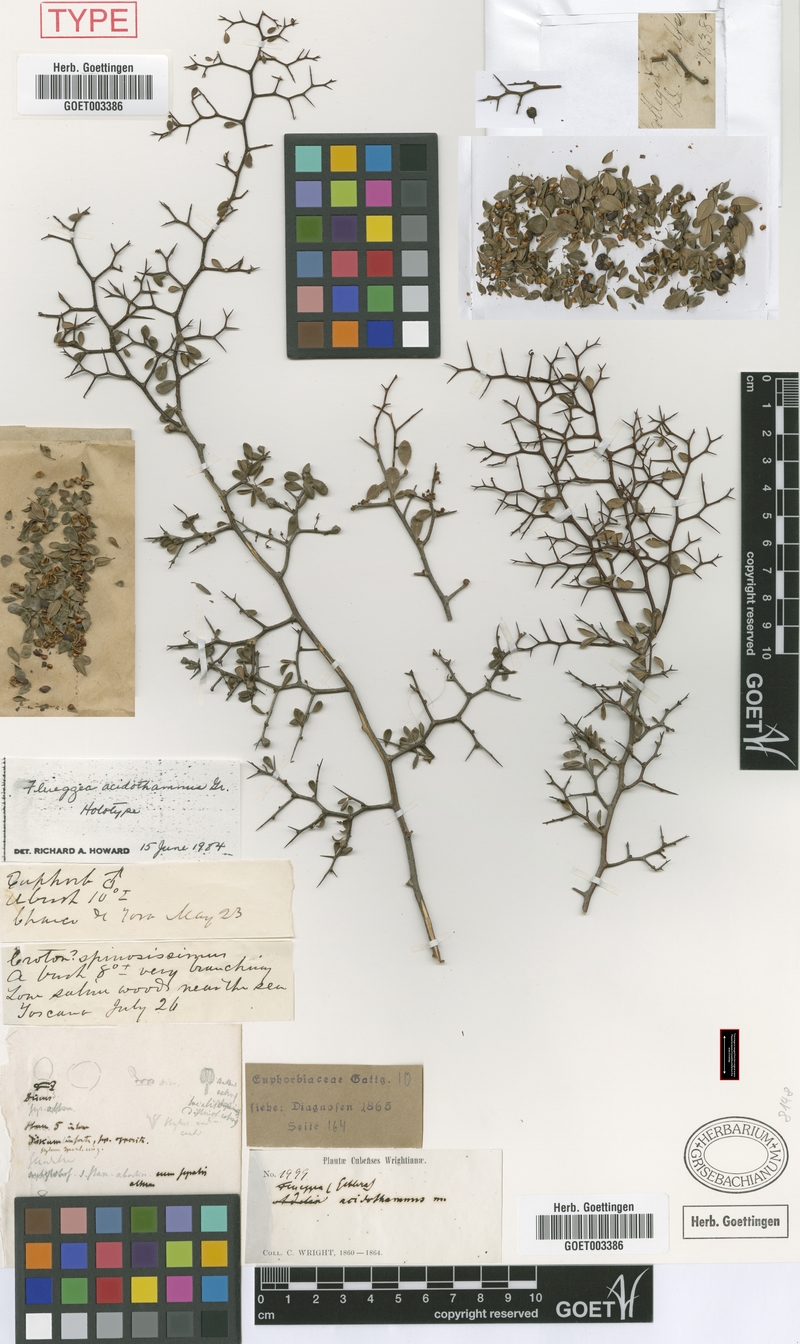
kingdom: Plantae
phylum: Tracheophyta
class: Magnoliopsida
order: Malpighiales
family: Phyllanthaceae
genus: Flueggea
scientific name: Flueggea acidoton
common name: Simpleleaf bushweed
